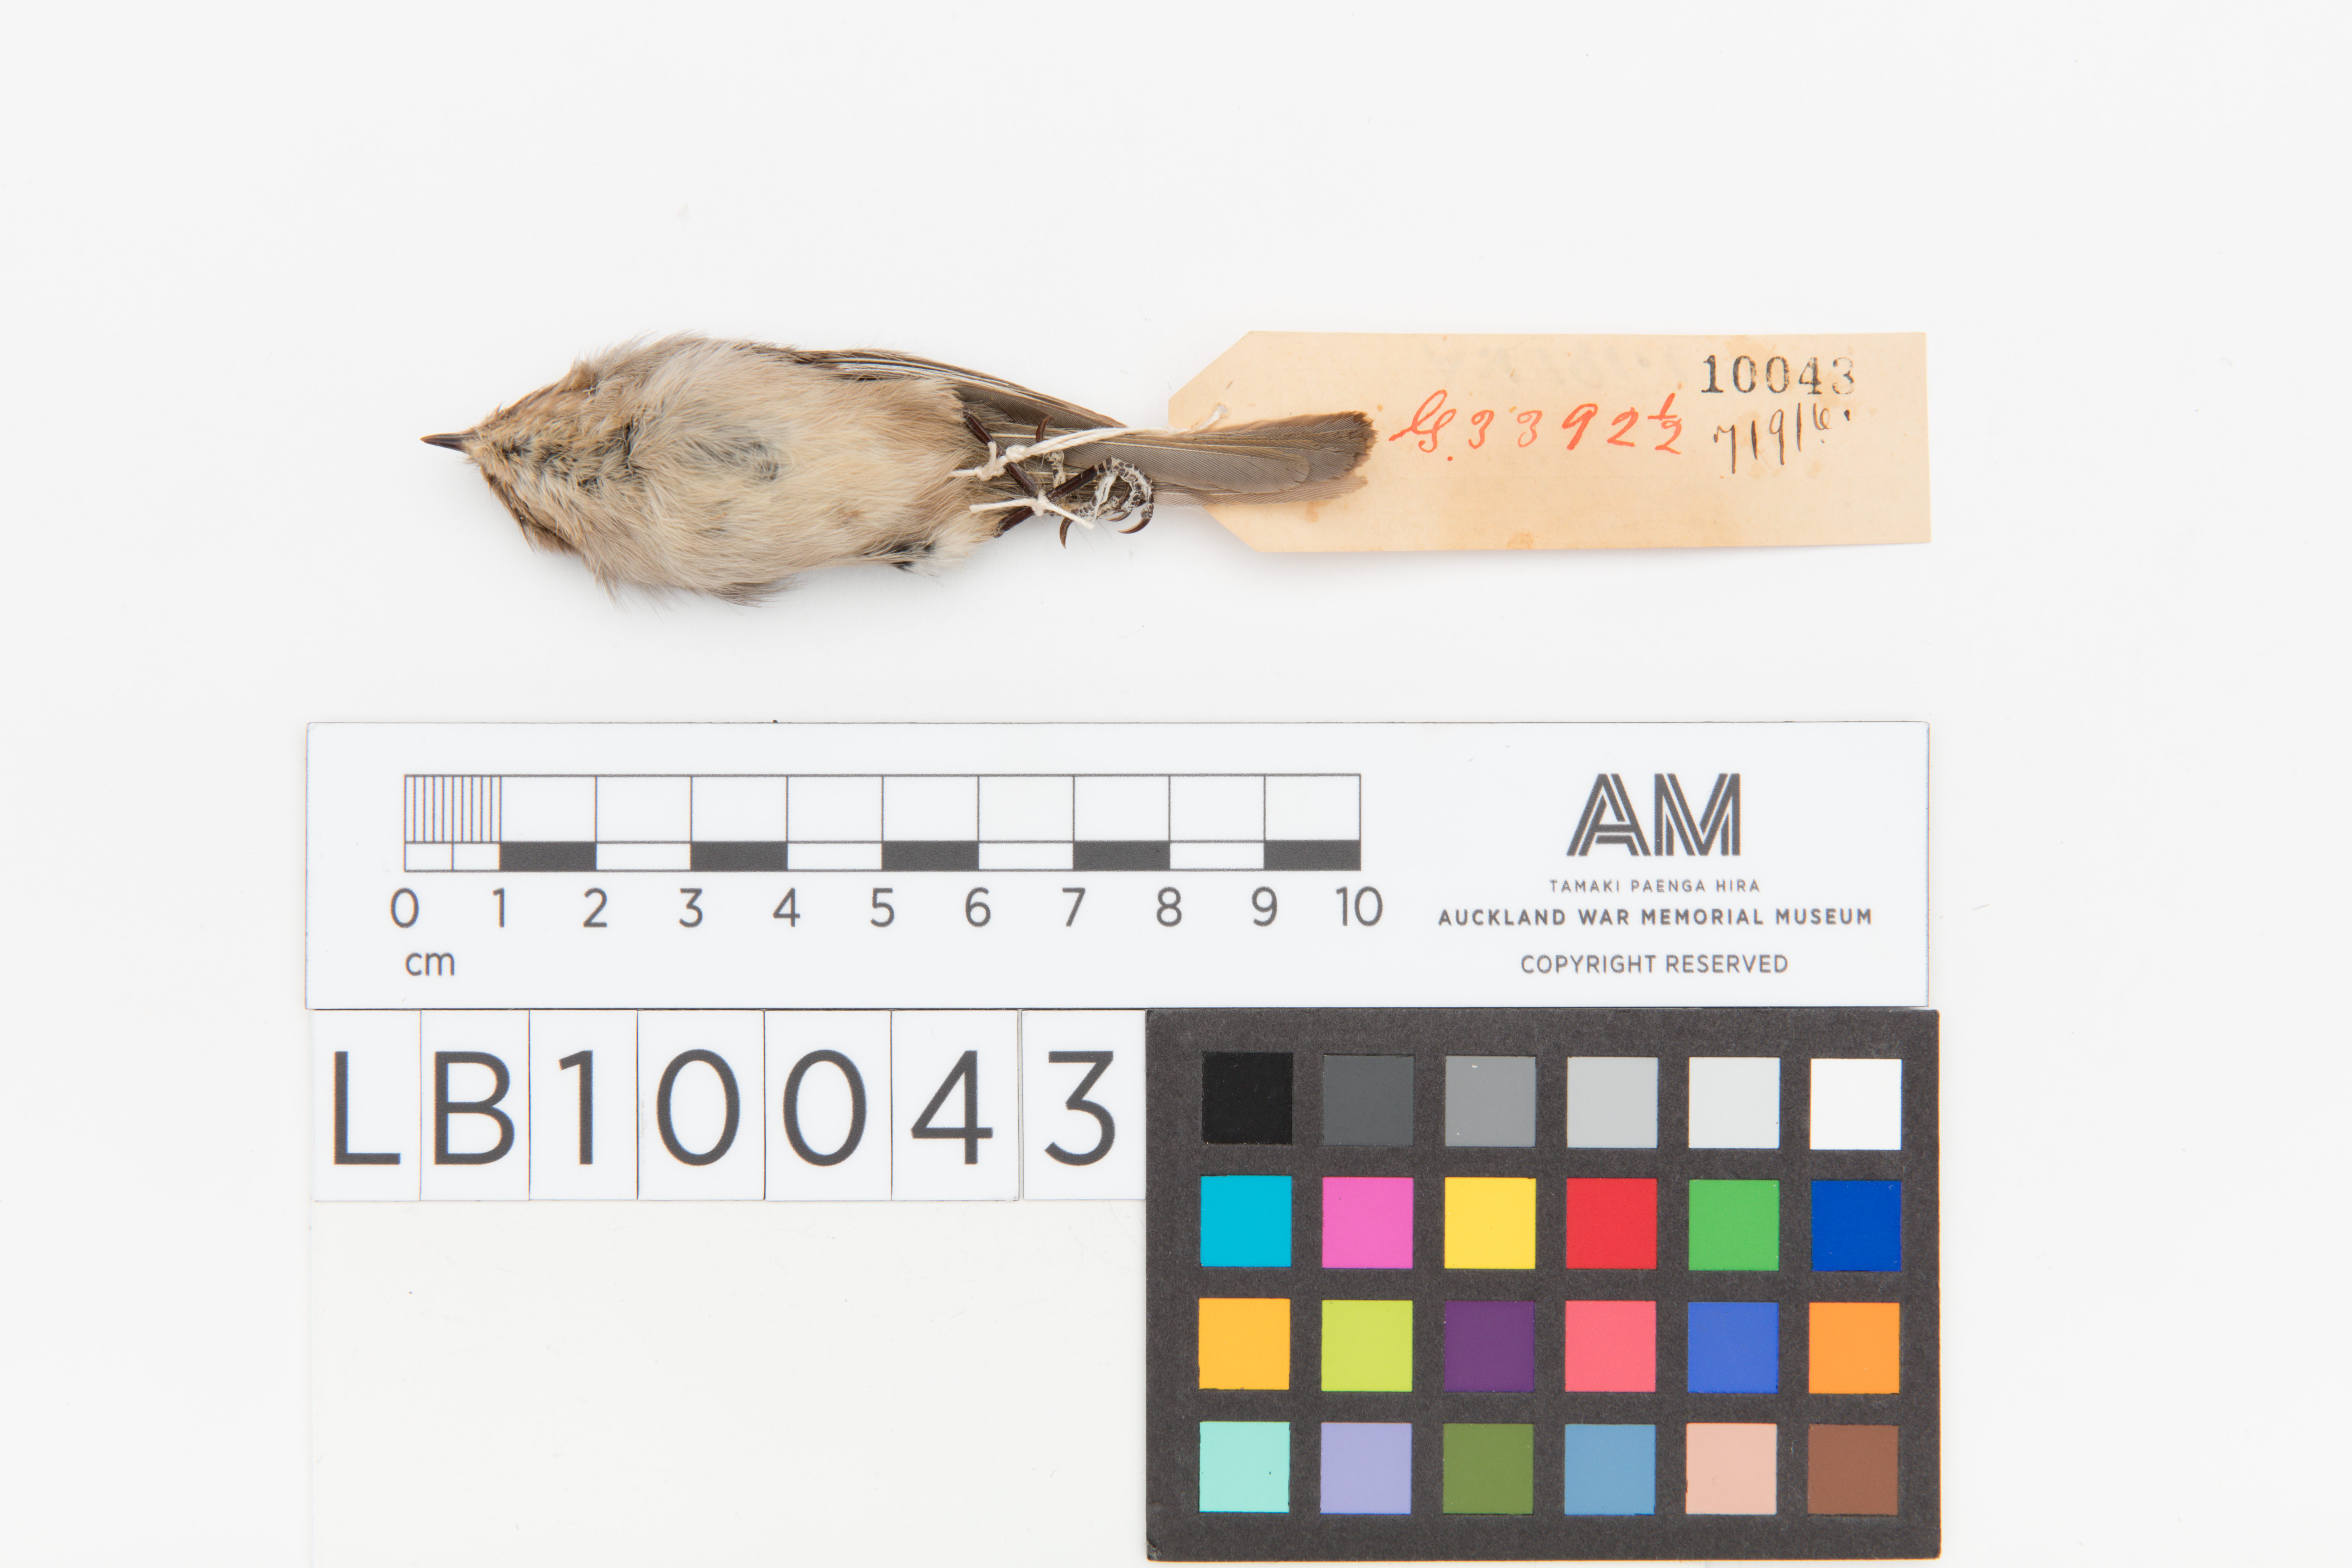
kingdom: Animalia
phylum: Chordata
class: Aves
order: Passeriformes
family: Aegithalidae
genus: Psaltriparus
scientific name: Psaltriparus minimus
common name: American bushtit
